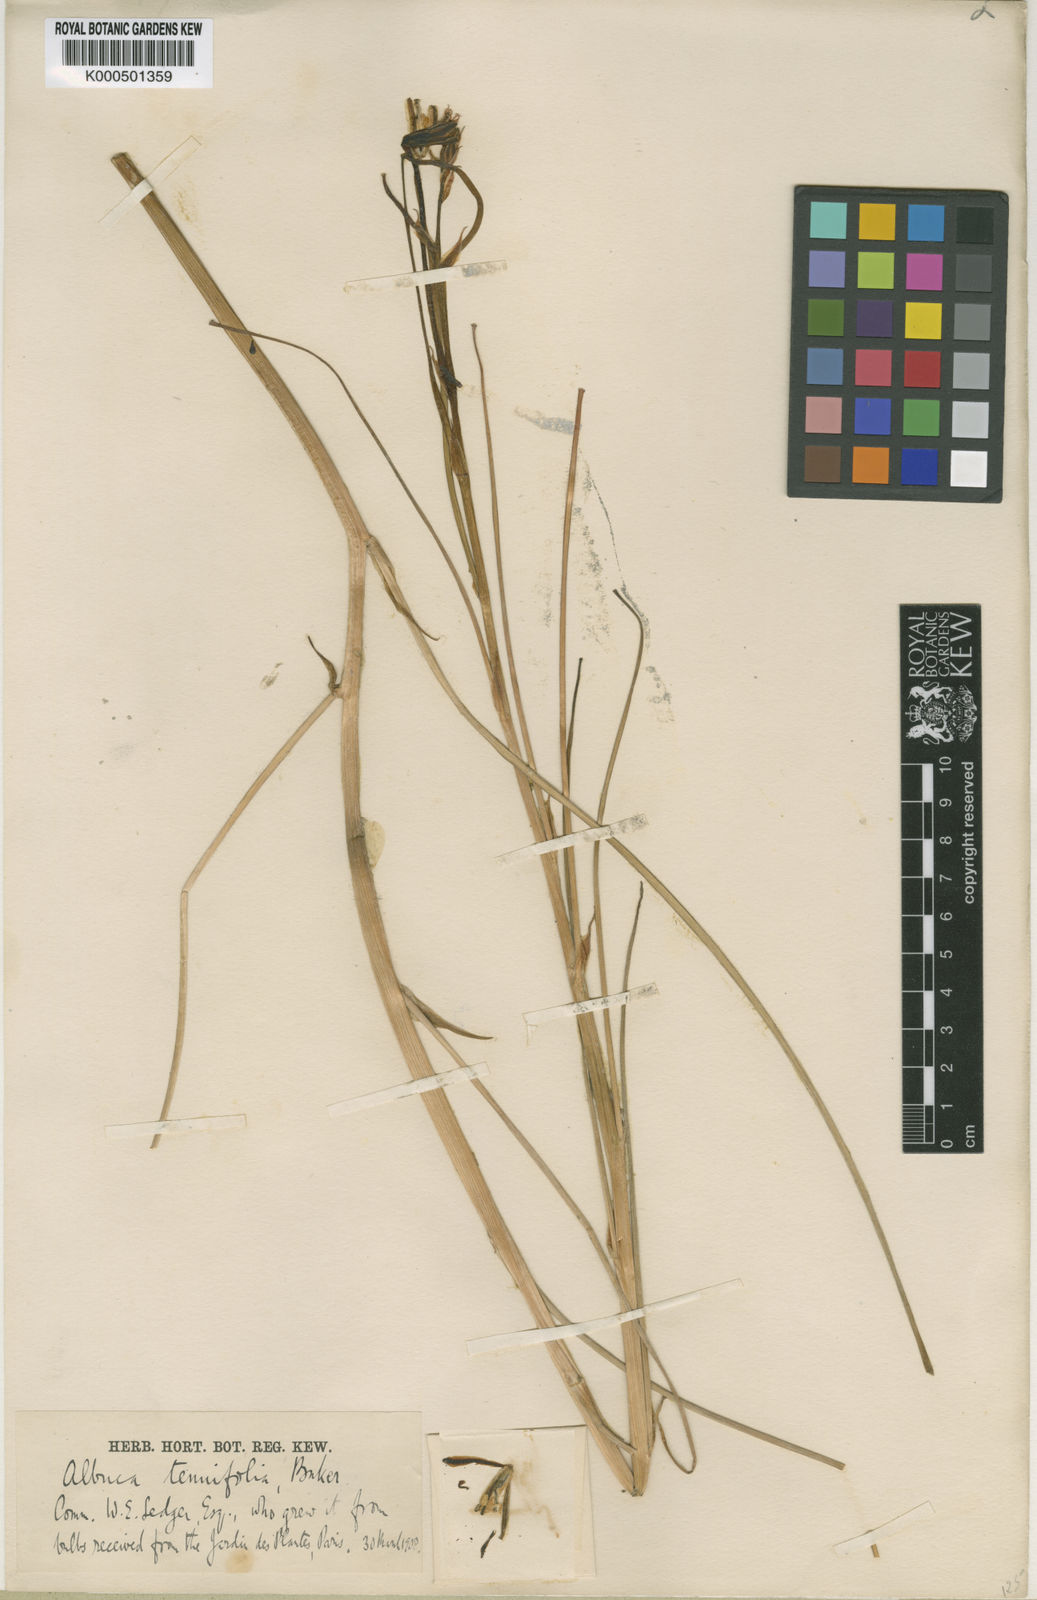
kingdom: Plantae
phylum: Tracheophyta
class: Liliopsida
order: Asparagales
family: Asparagaceae
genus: Albuca
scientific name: Albuca tenuifolia
